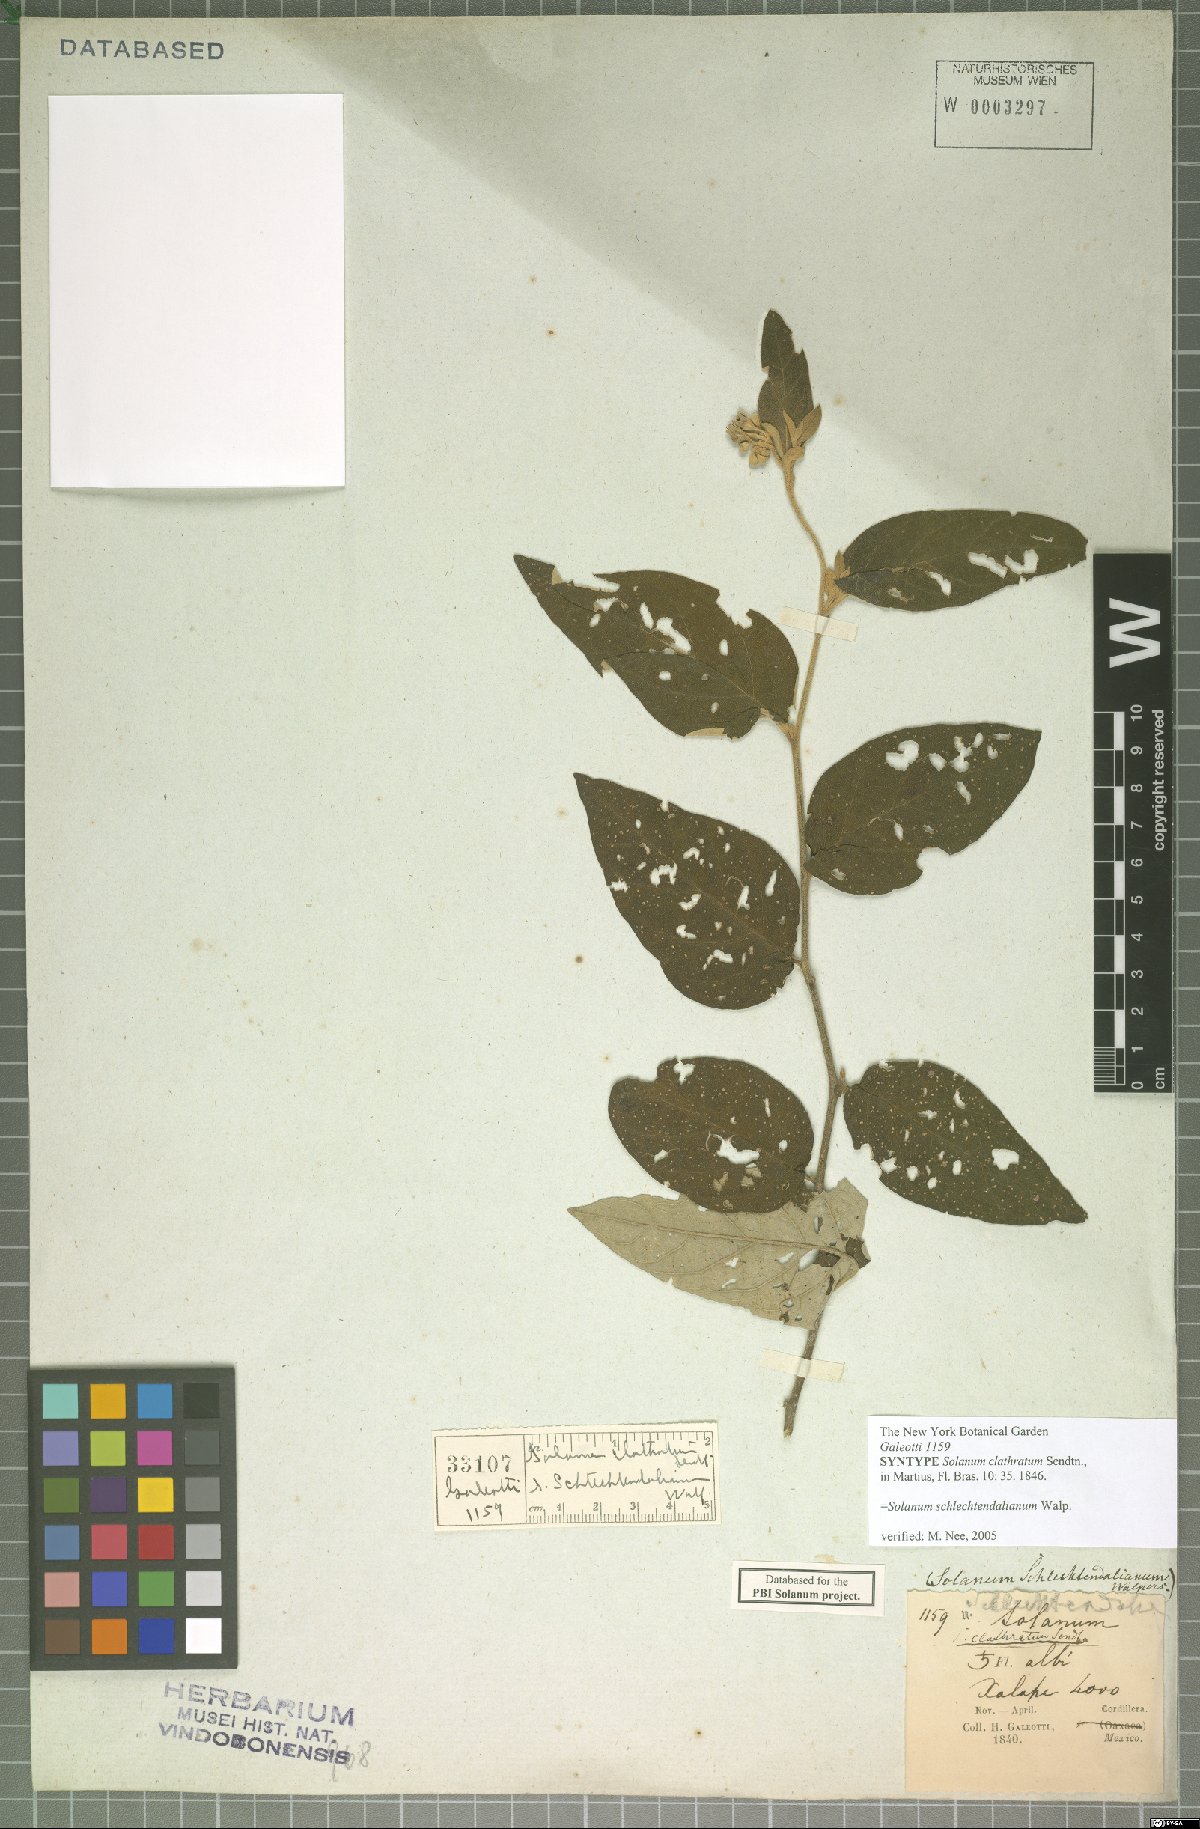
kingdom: Plantae
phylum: Tracheophyta
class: Magnoliopsida
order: Solanales
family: Solanaceae
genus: Solanum
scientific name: Solanum schlechtendalianum
